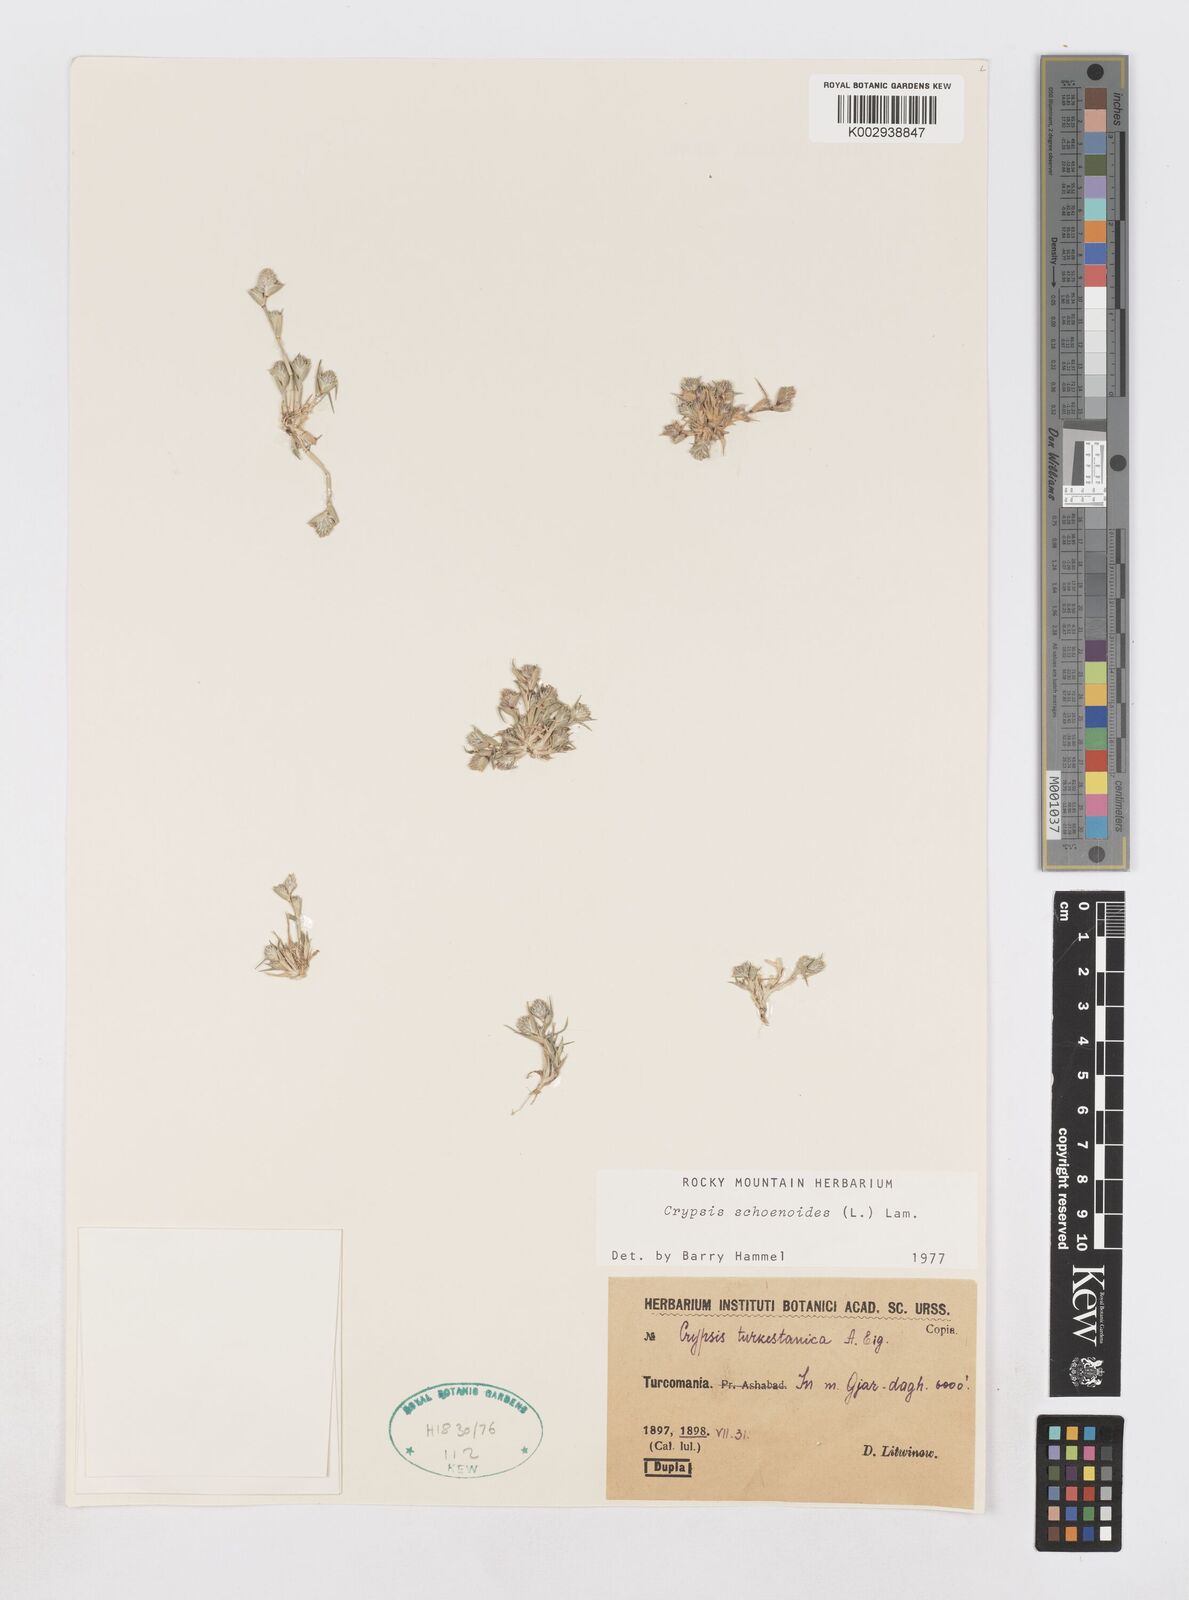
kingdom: Plantae
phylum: Tracheophyta
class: Liliopsida
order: Poales
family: Poaceae
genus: Sporobolus
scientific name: Sporobolus schoenoides
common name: Rush-like timothy
